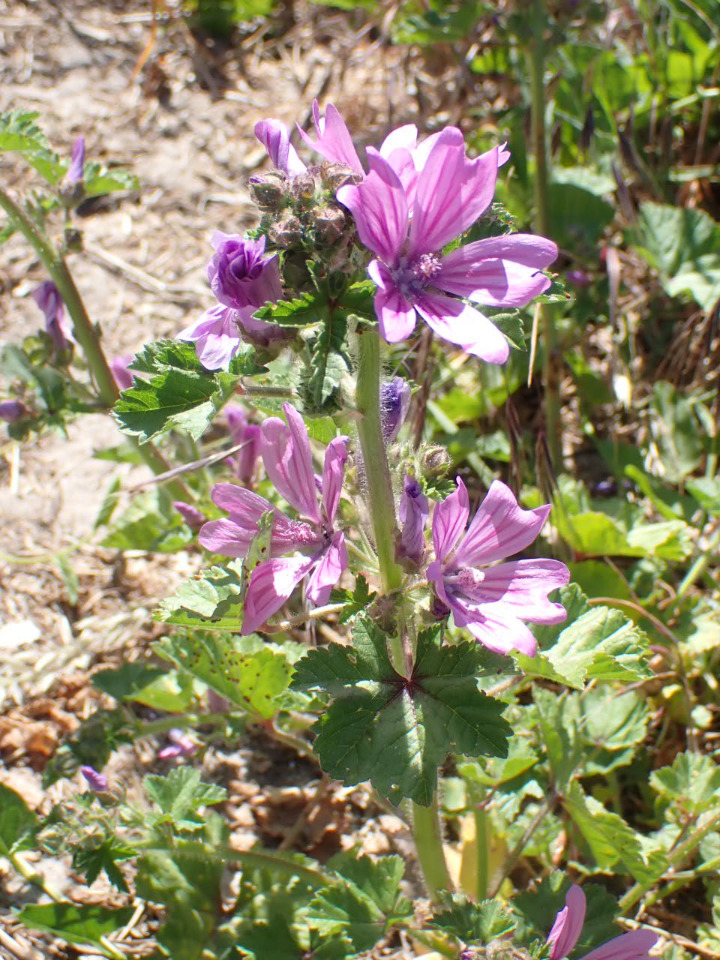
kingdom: Plantae
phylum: Tracheophyta
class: Magnoliopsida
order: Malvales
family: Malvaceae
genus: Malva
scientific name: Malva sylvestris
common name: Almindelig katost
